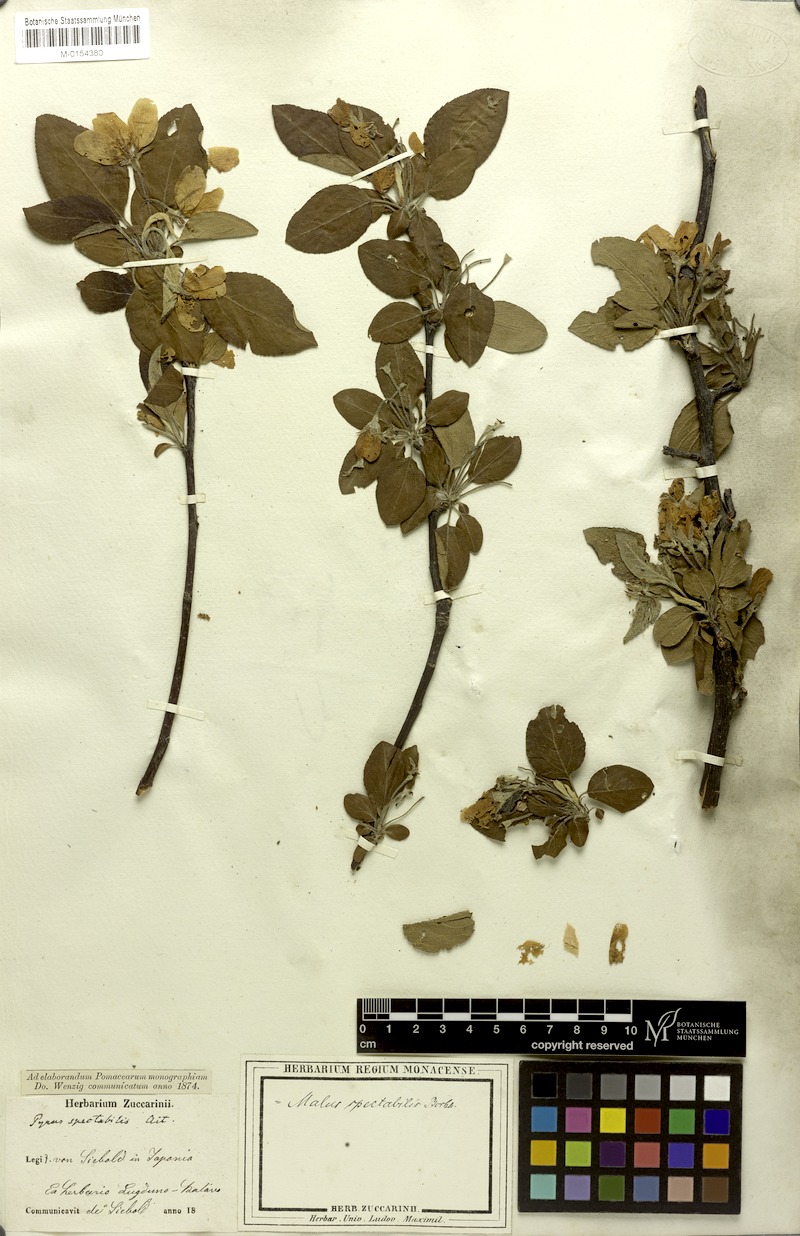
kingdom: Plantae
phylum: Tracheophyta
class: Magnoliopsida
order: Rosales
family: Rosaceae
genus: Malus
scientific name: Malus spectabilis
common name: Asiatic apple
